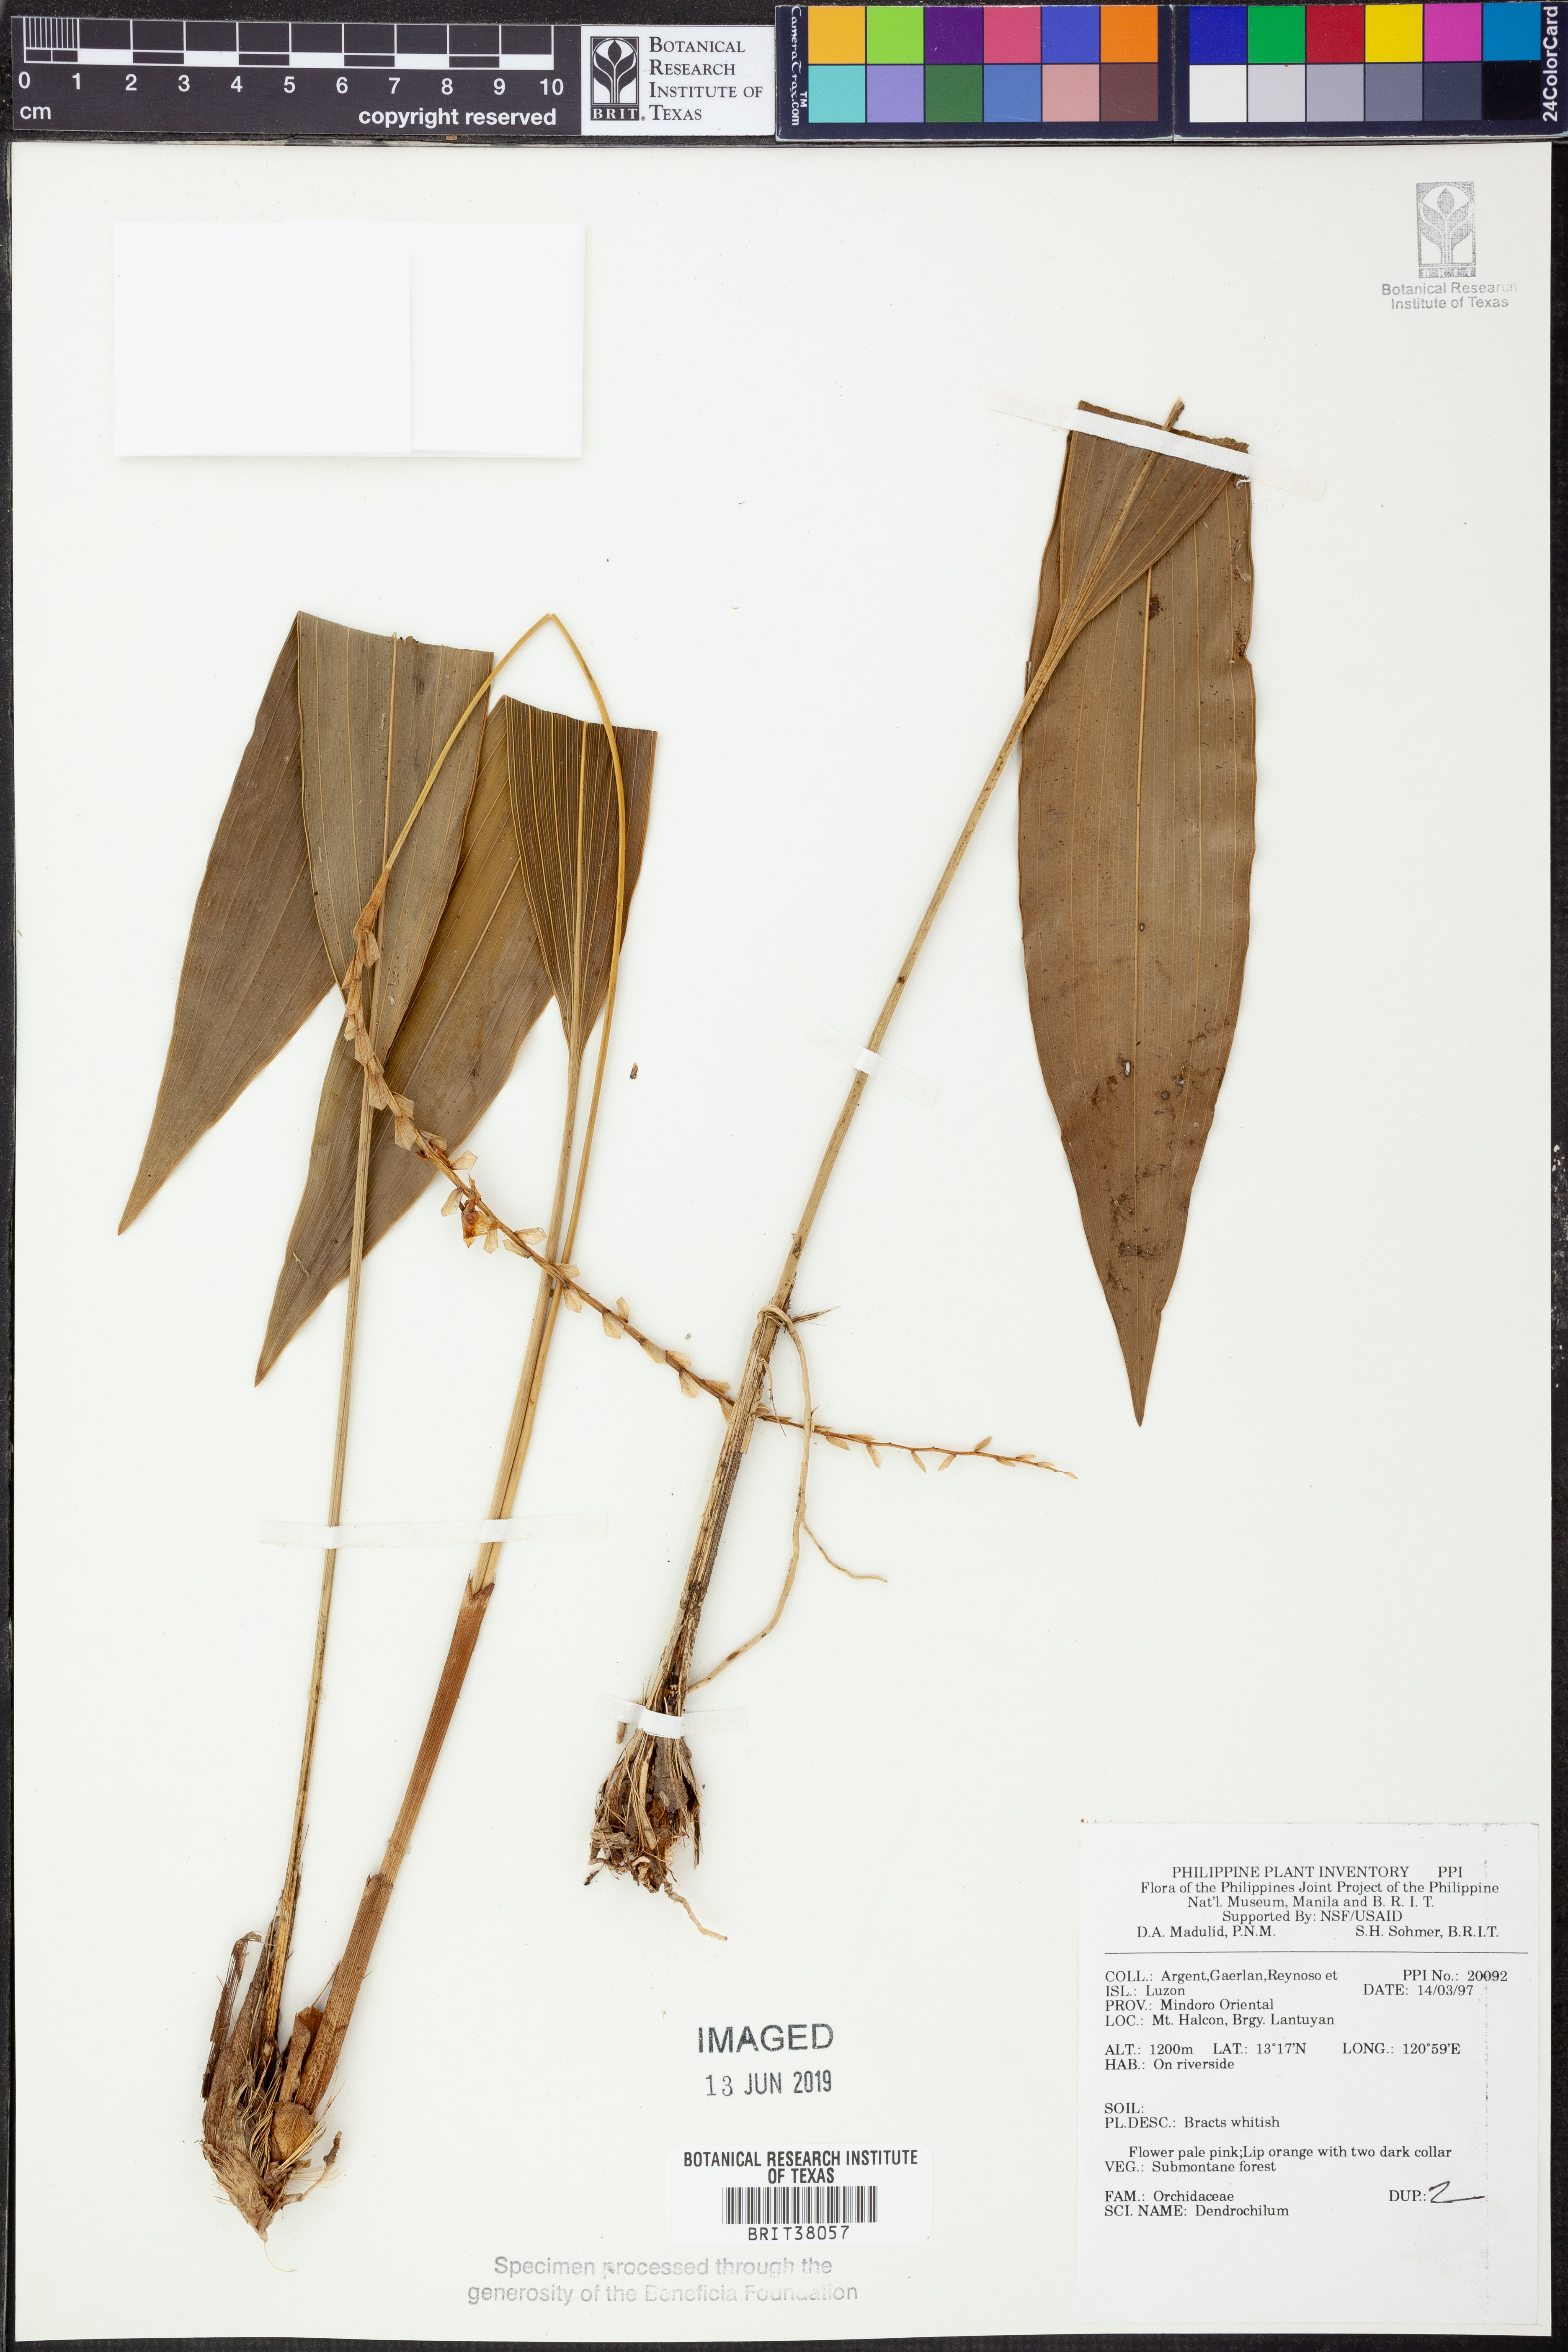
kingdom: Plantae
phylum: Tracheophyta
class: Liliopsida
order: Asparagales
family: Orchidaceae
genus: Coelogyne
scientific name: Coelogyne
